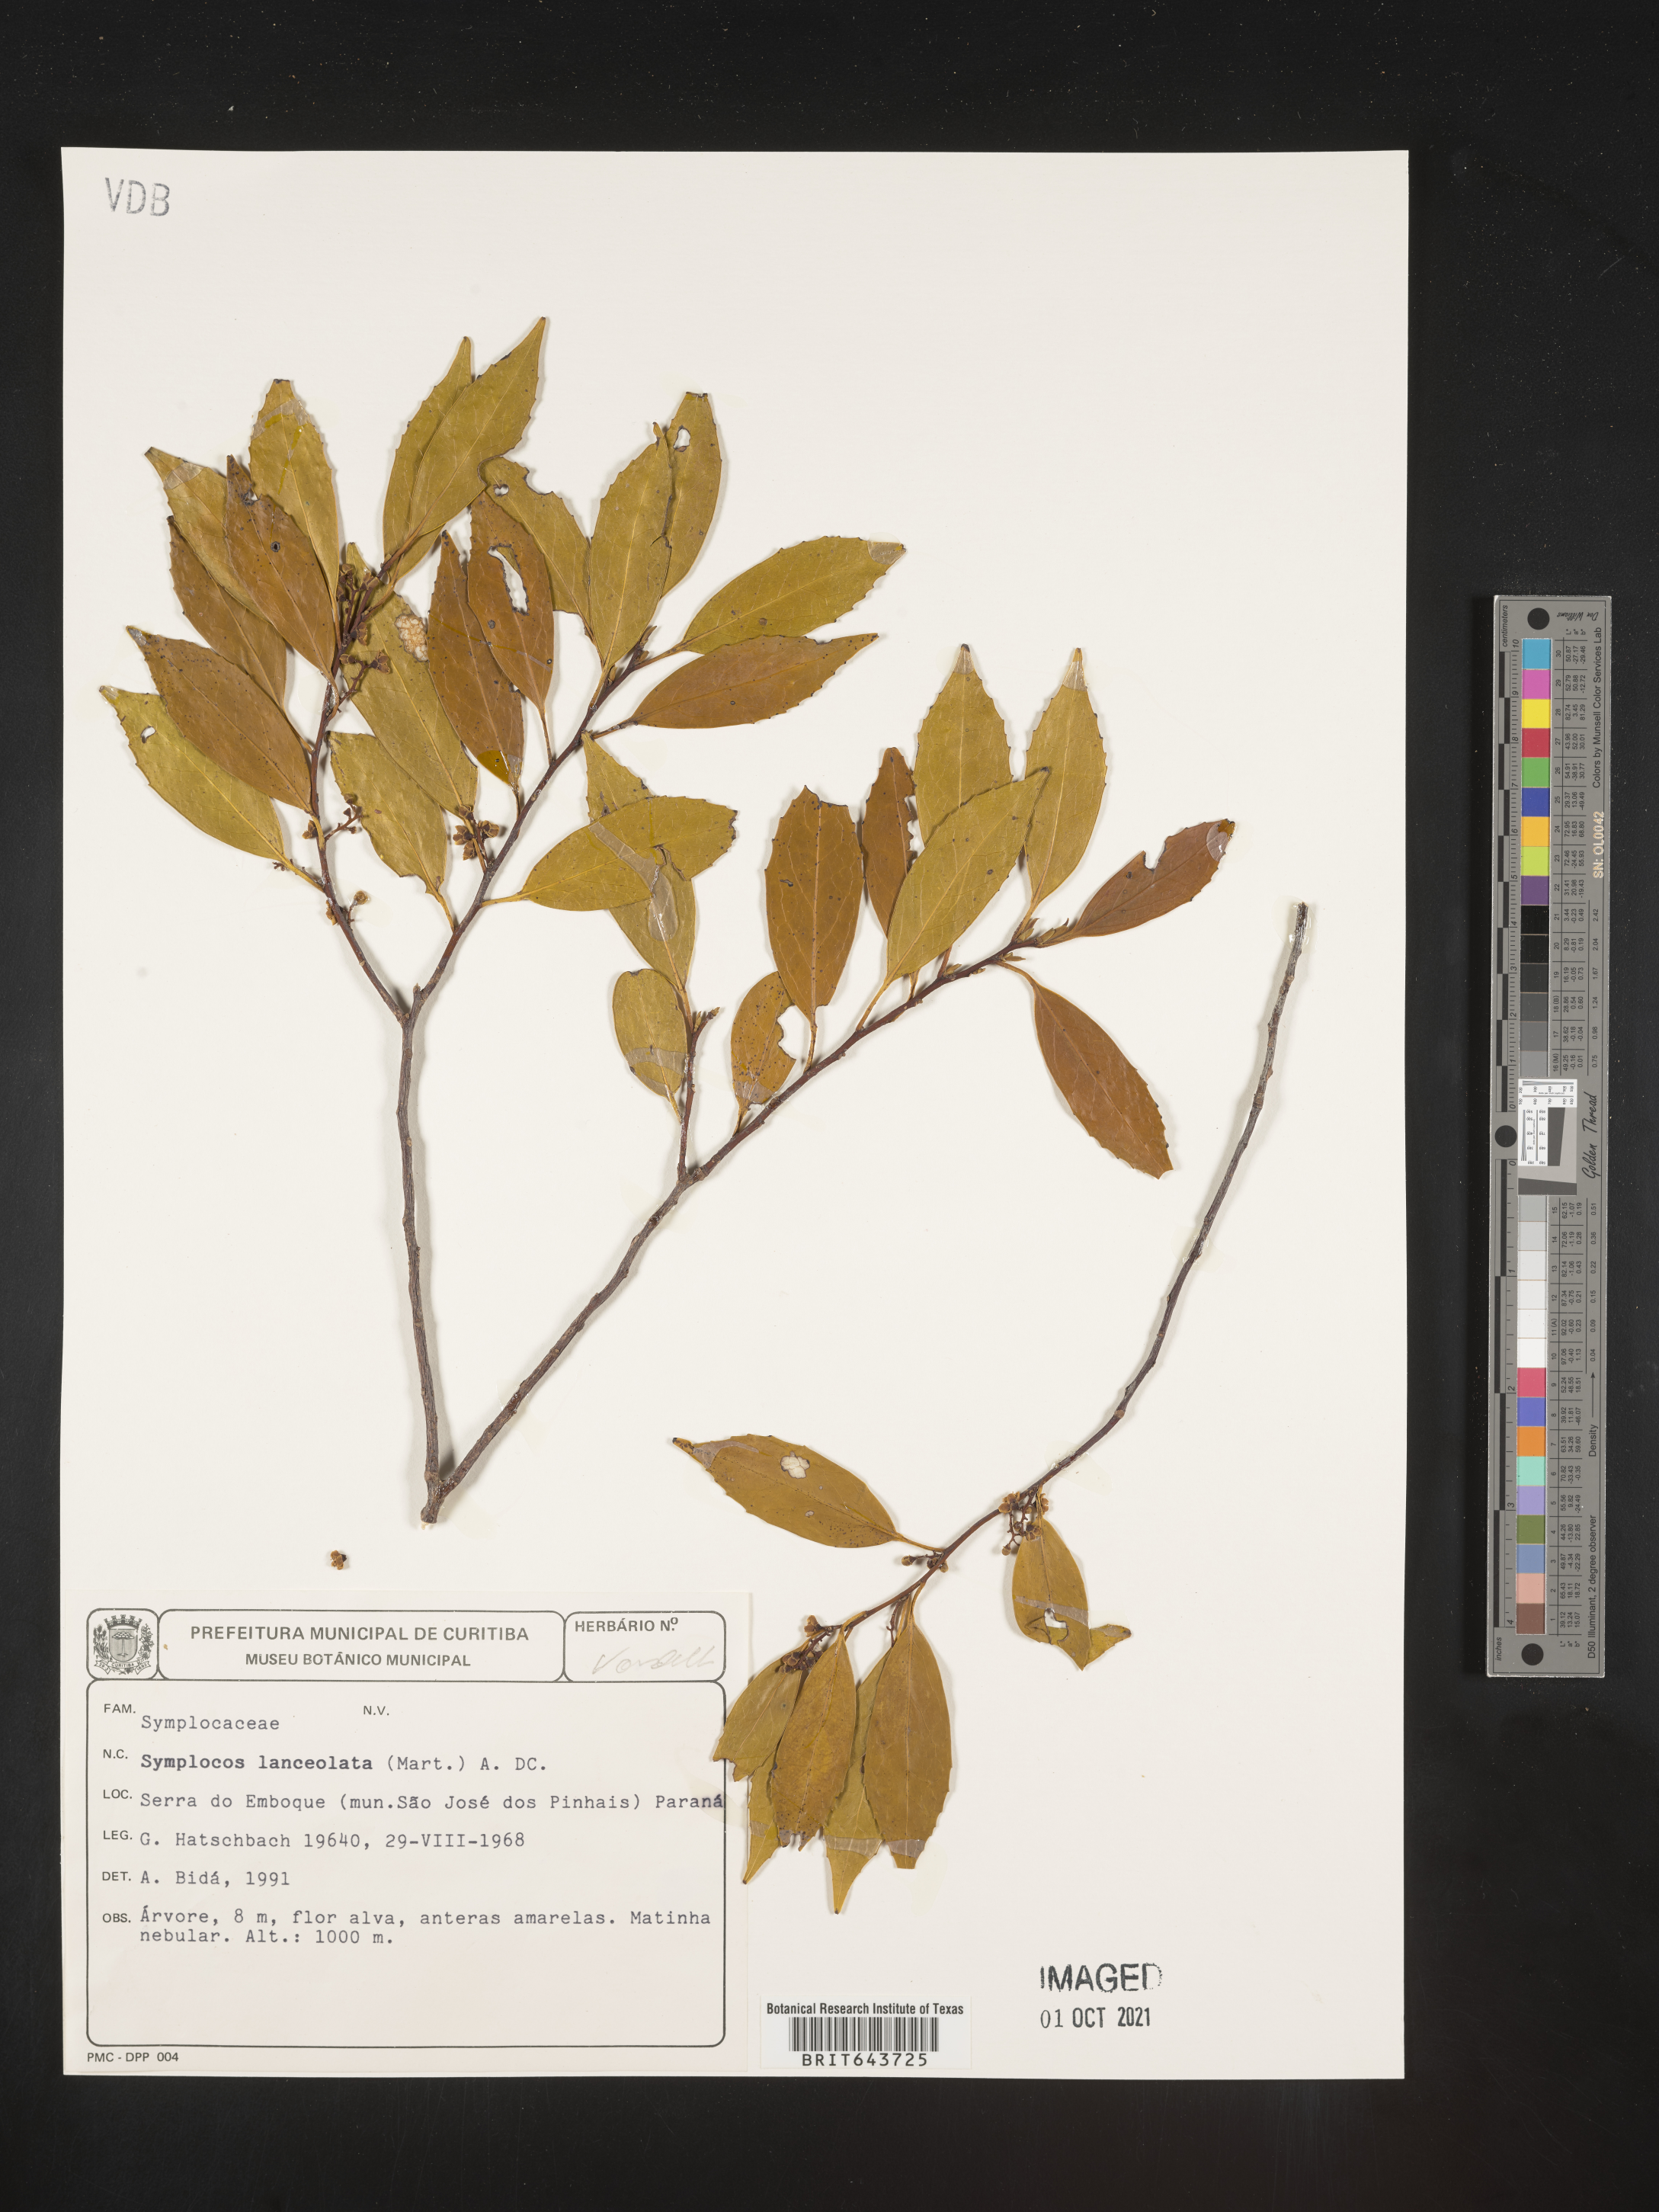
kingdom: Plantae
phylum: Tracheophyta
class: Magnoliopsida
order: Ericales
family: Symplocaceae
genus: Symplocos
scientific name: Symplocos
